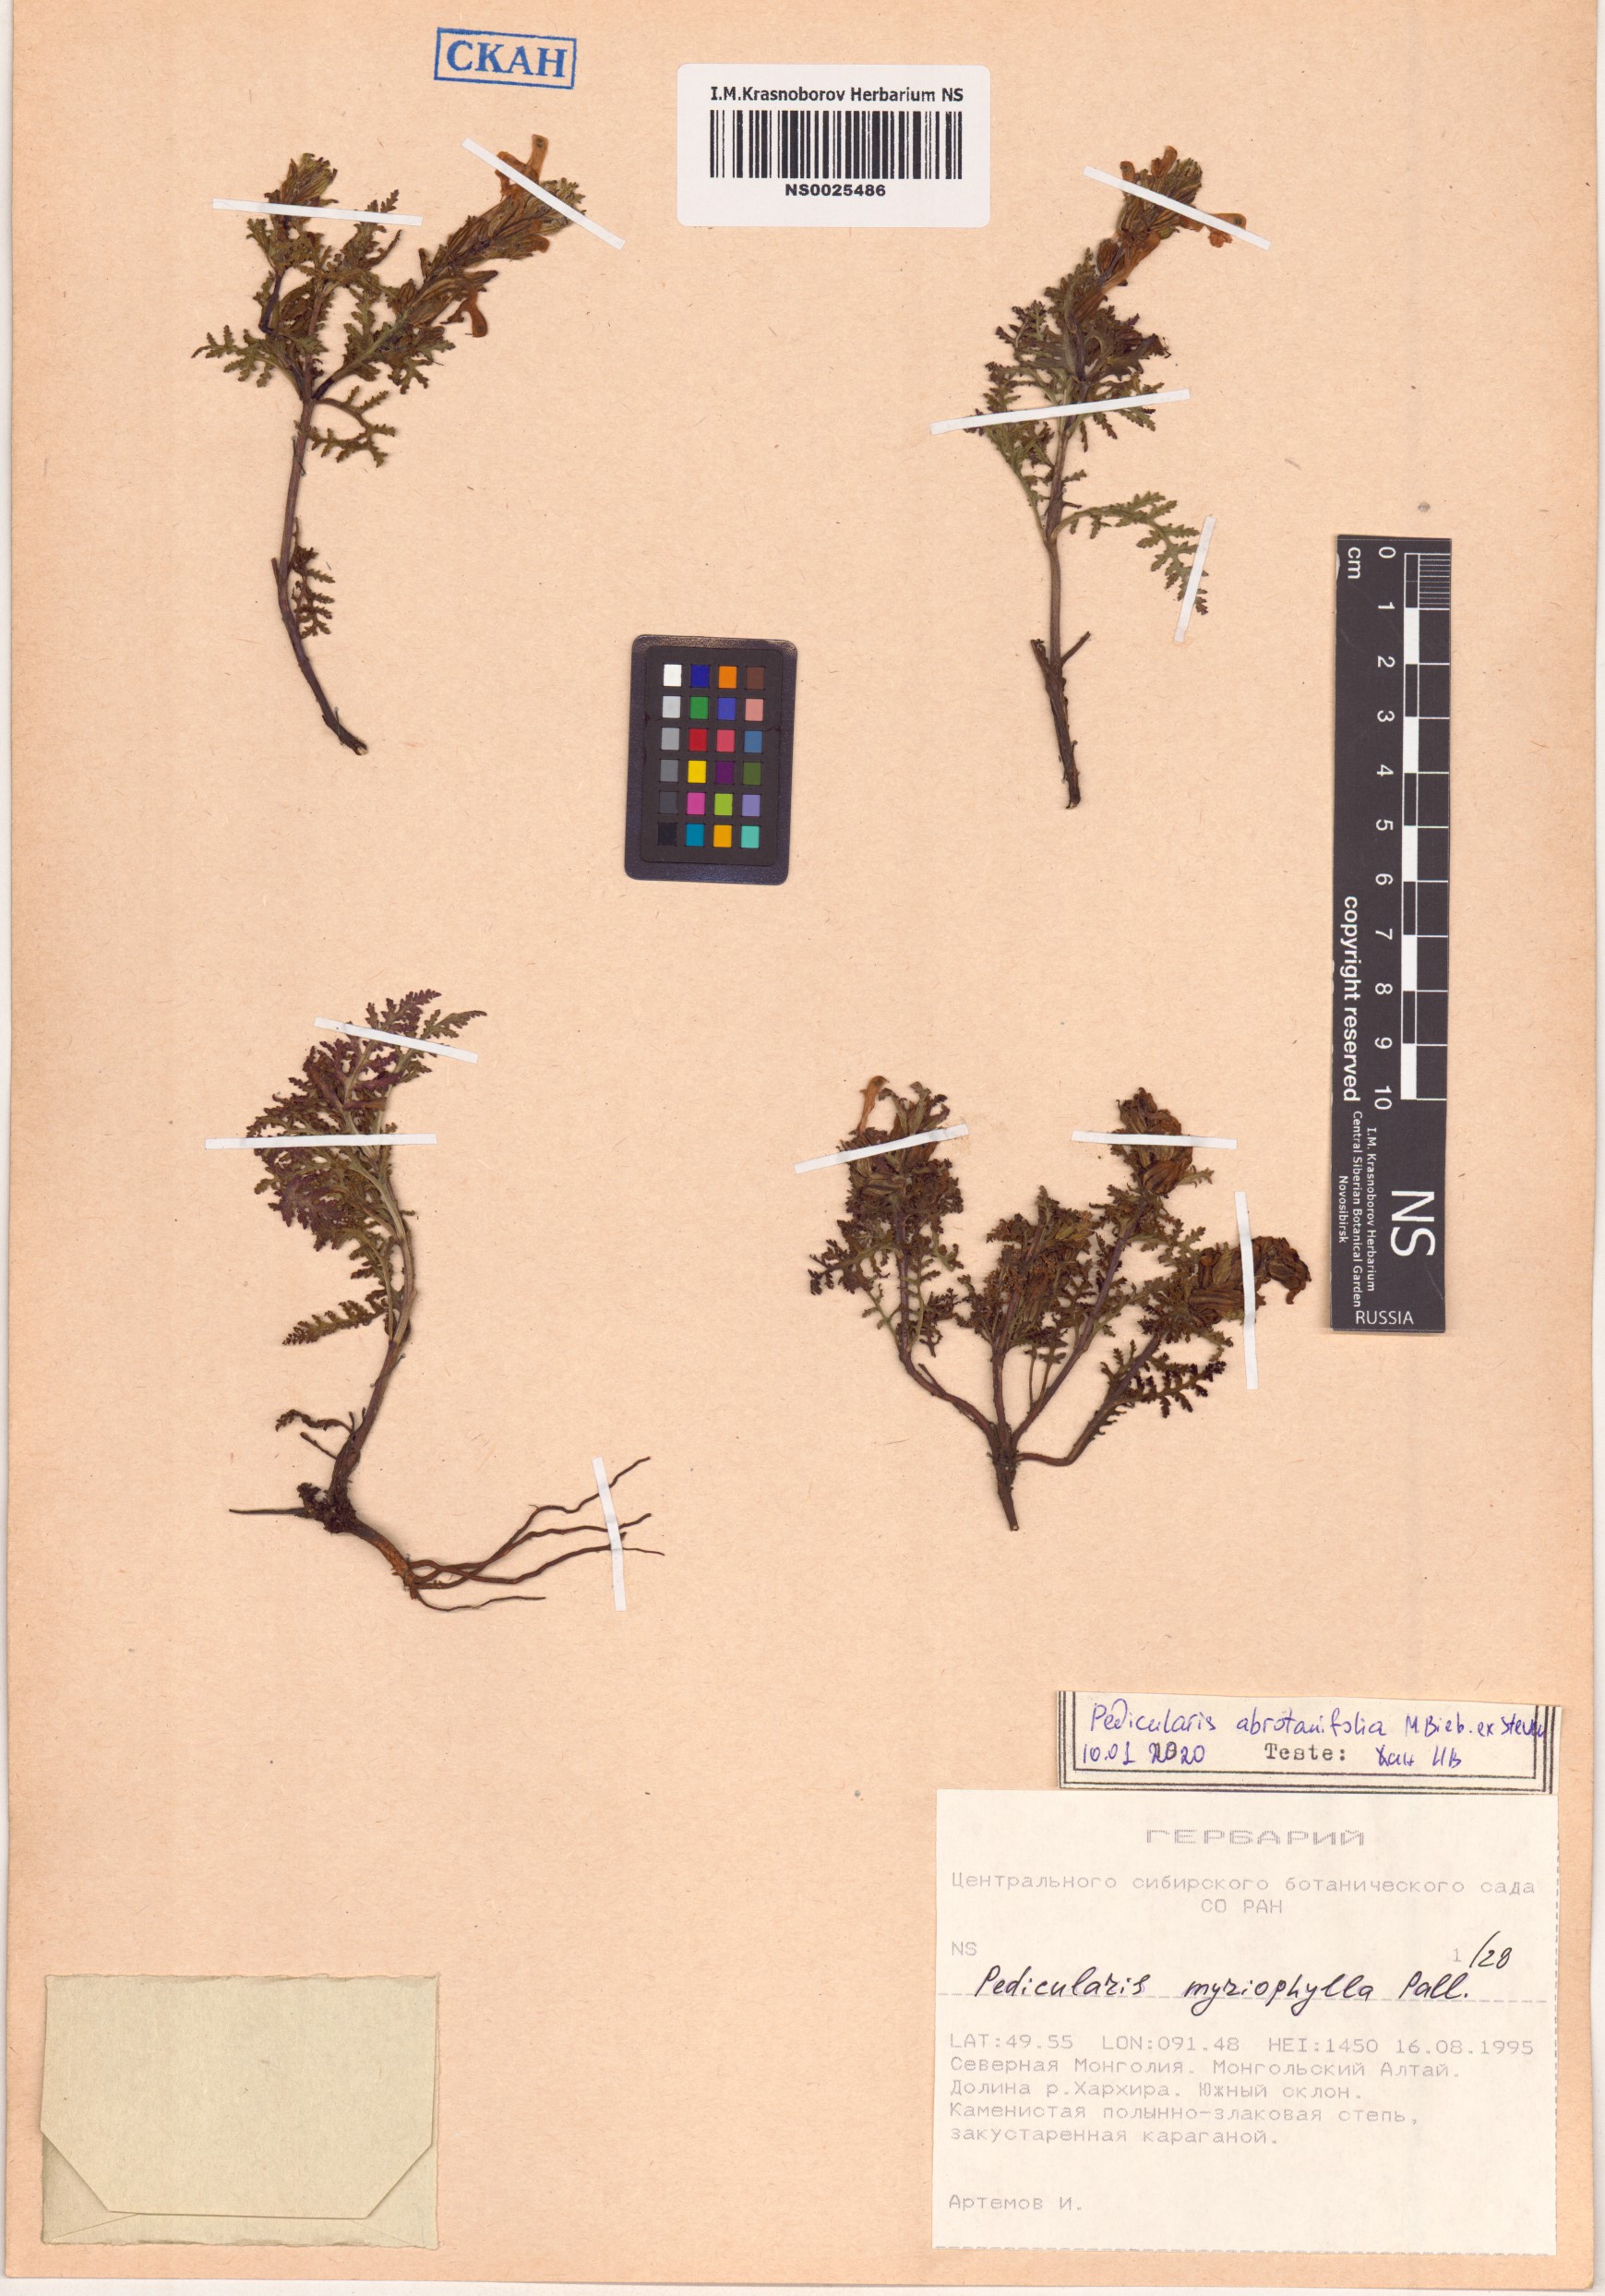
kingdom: Plantae
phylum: Tracheophyta
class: Magnoliopsida
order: Lamiales
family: Orobanchaceae
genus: Pedicularis
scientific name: Pedicularis abrotanifolia
